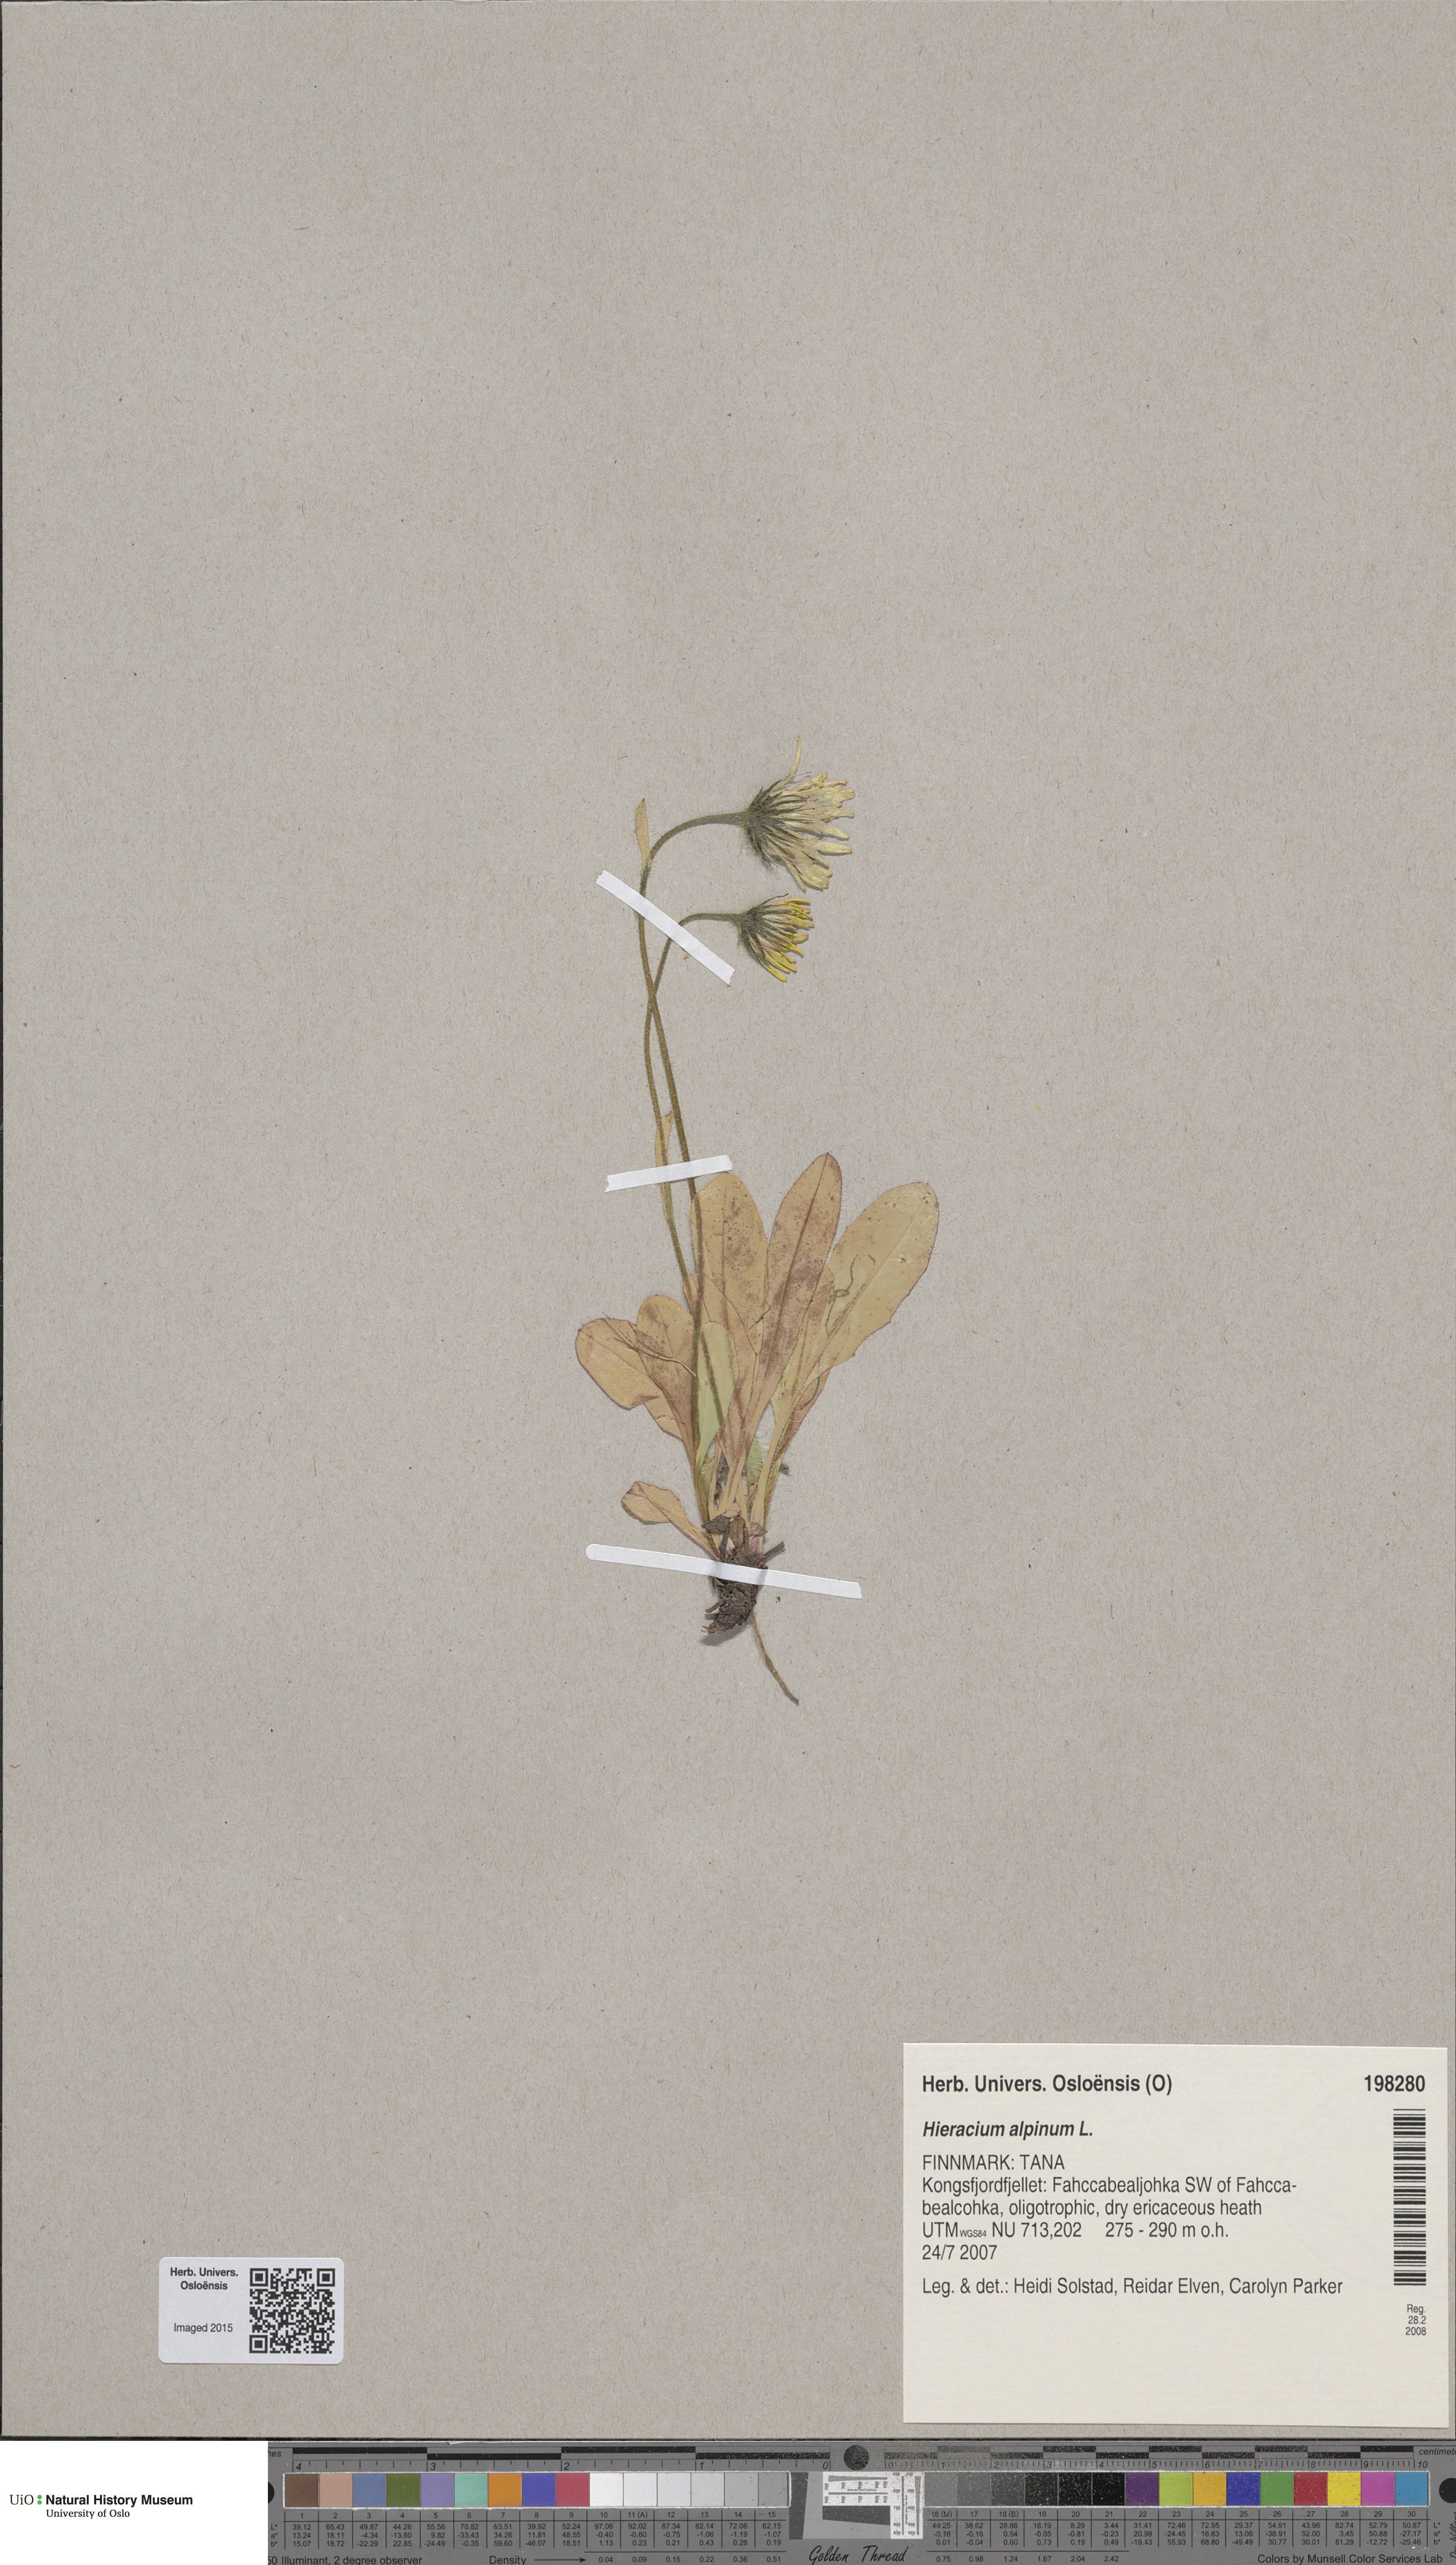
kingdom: Plantae
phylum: Tracheophyta
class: Magnoliopsida
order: Asterales
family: Asteraceae
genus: Hieracium
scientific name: Hieracium alpinum
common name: Alpine hawkweed
